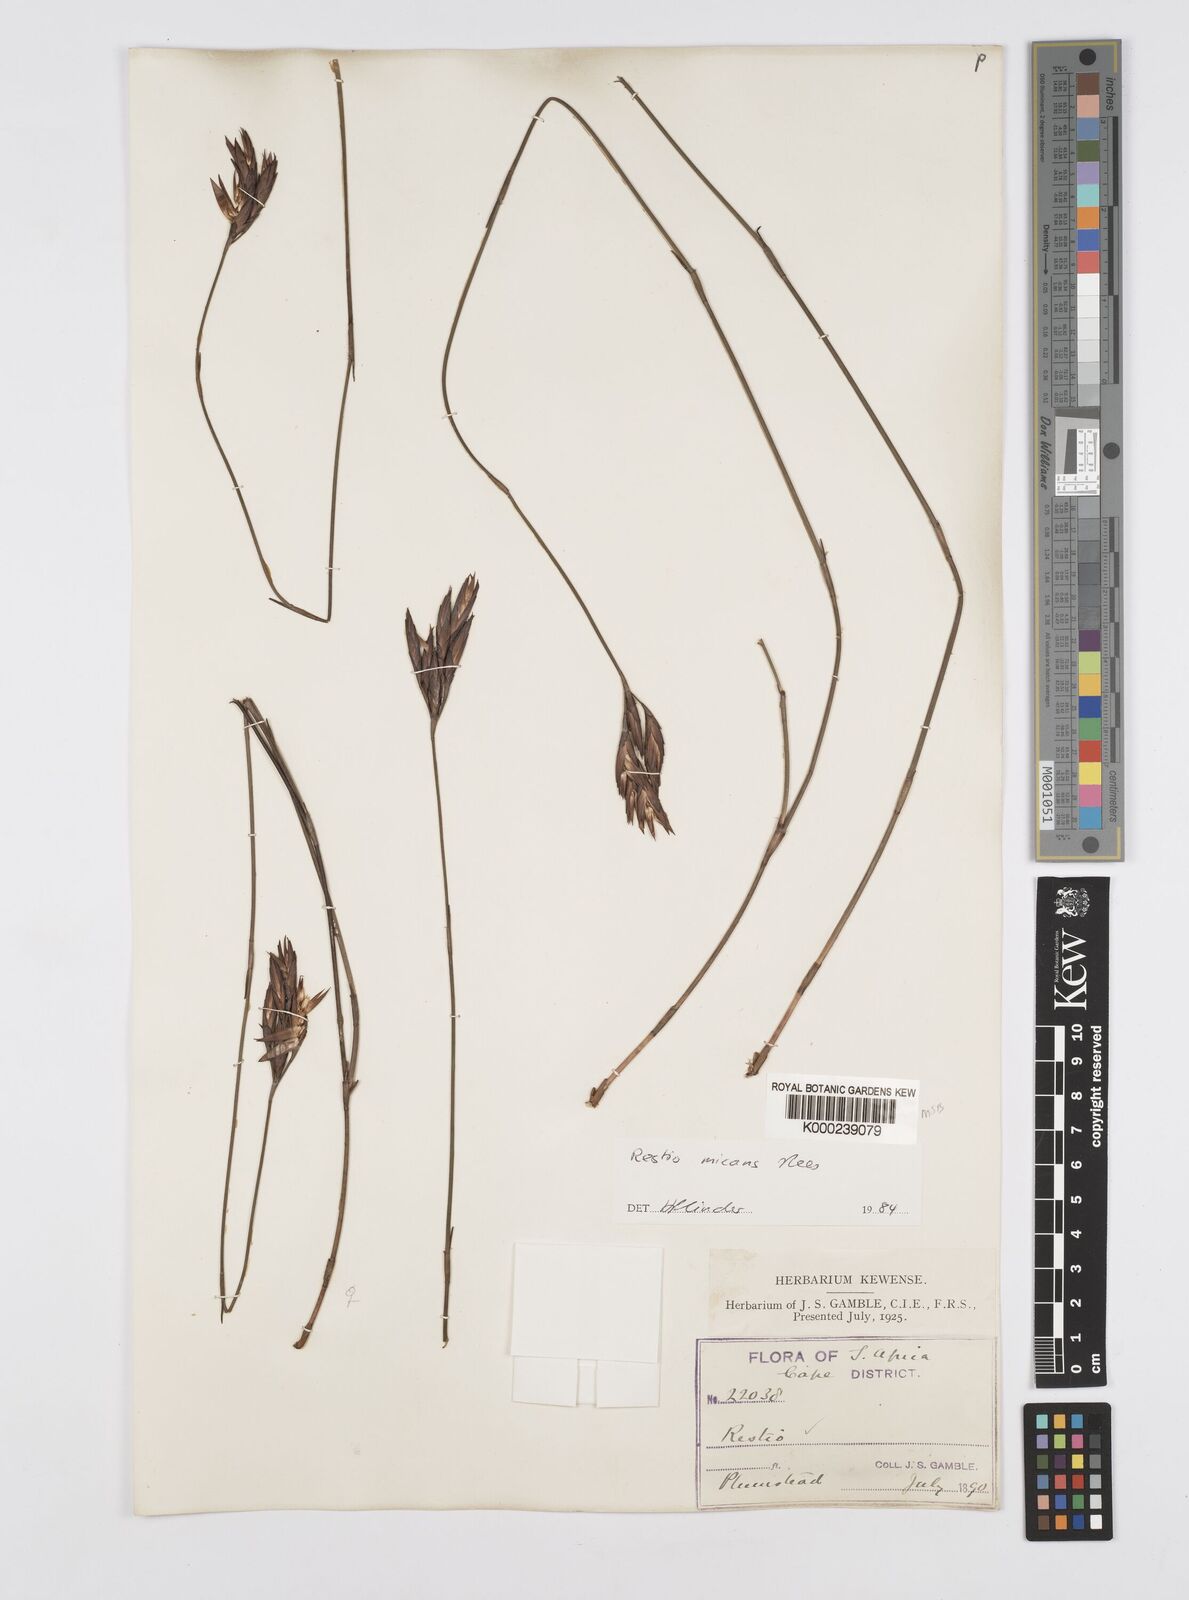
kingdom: Plantae
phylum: Tracheophyta
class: Liliopsida
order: Poales
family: Restionaceae
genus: Restio
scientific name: Restio micans
